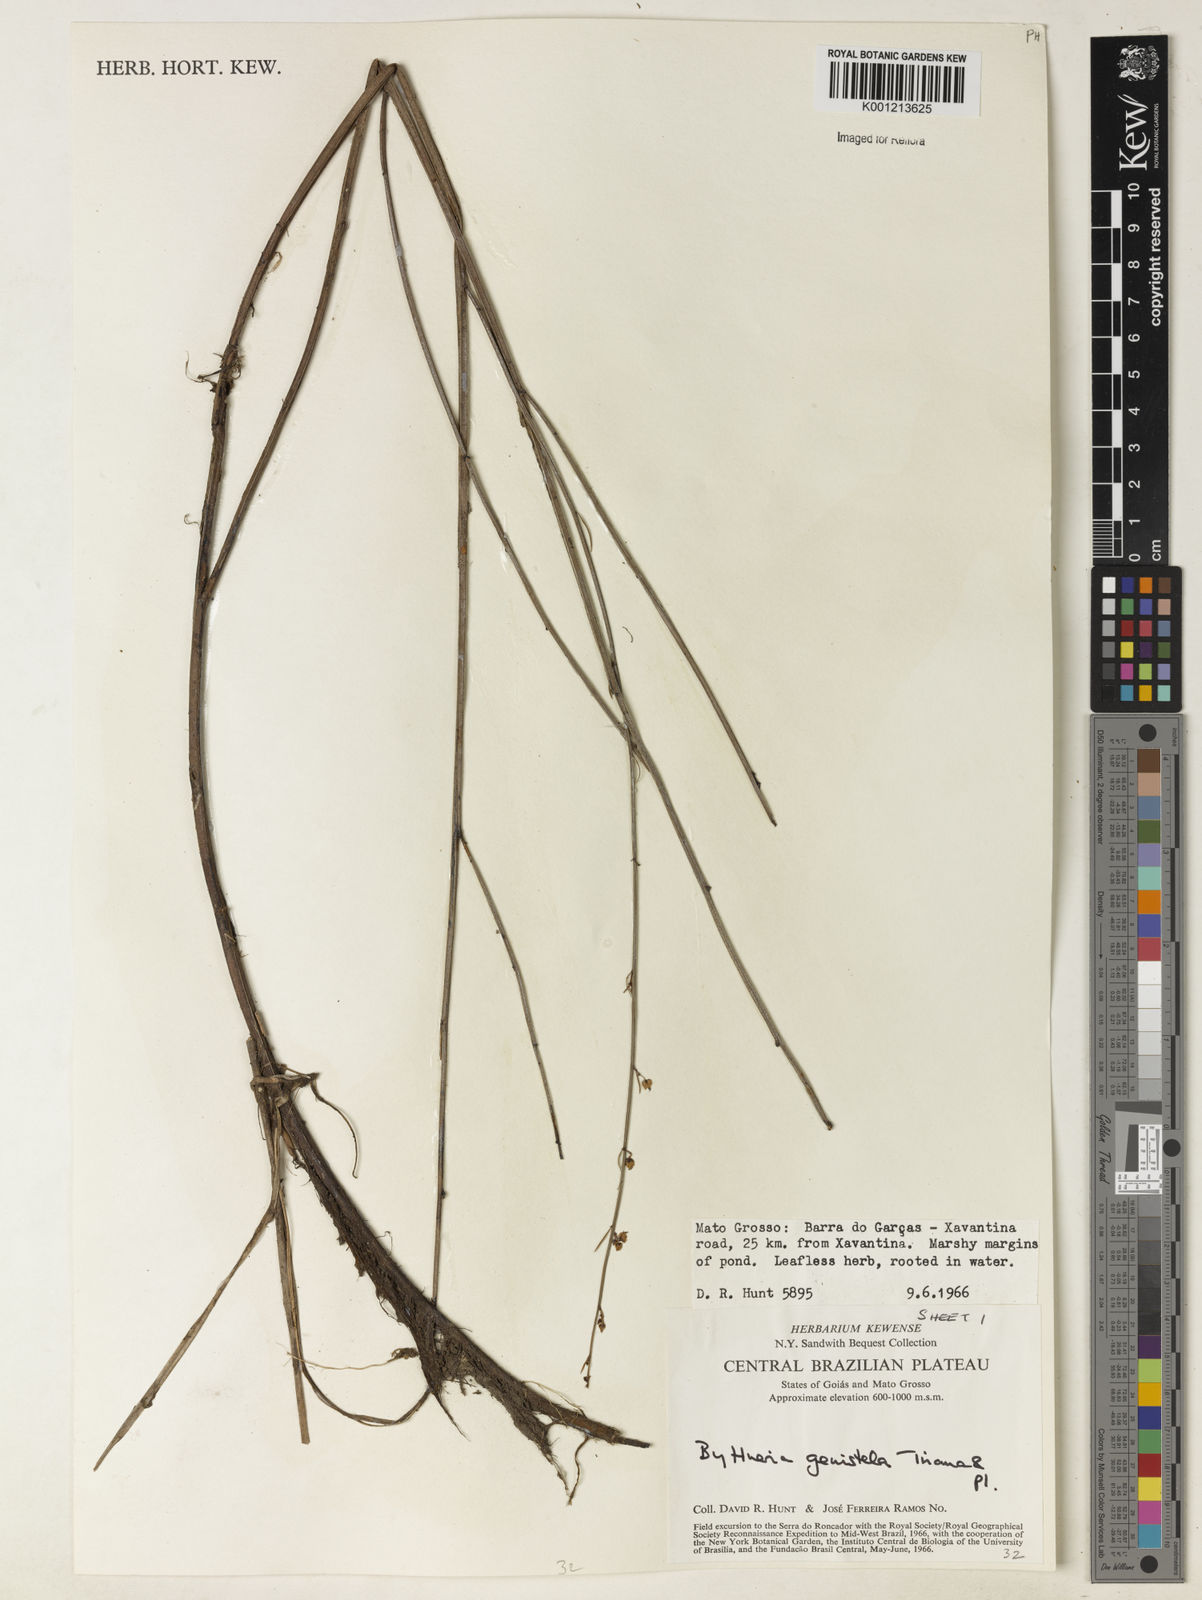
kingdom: Plantae
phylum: Tracheophyta
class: Magnoliopsida
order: Malvales
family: Malvaceae
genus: Byttneria
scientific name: Byttneria genistella
